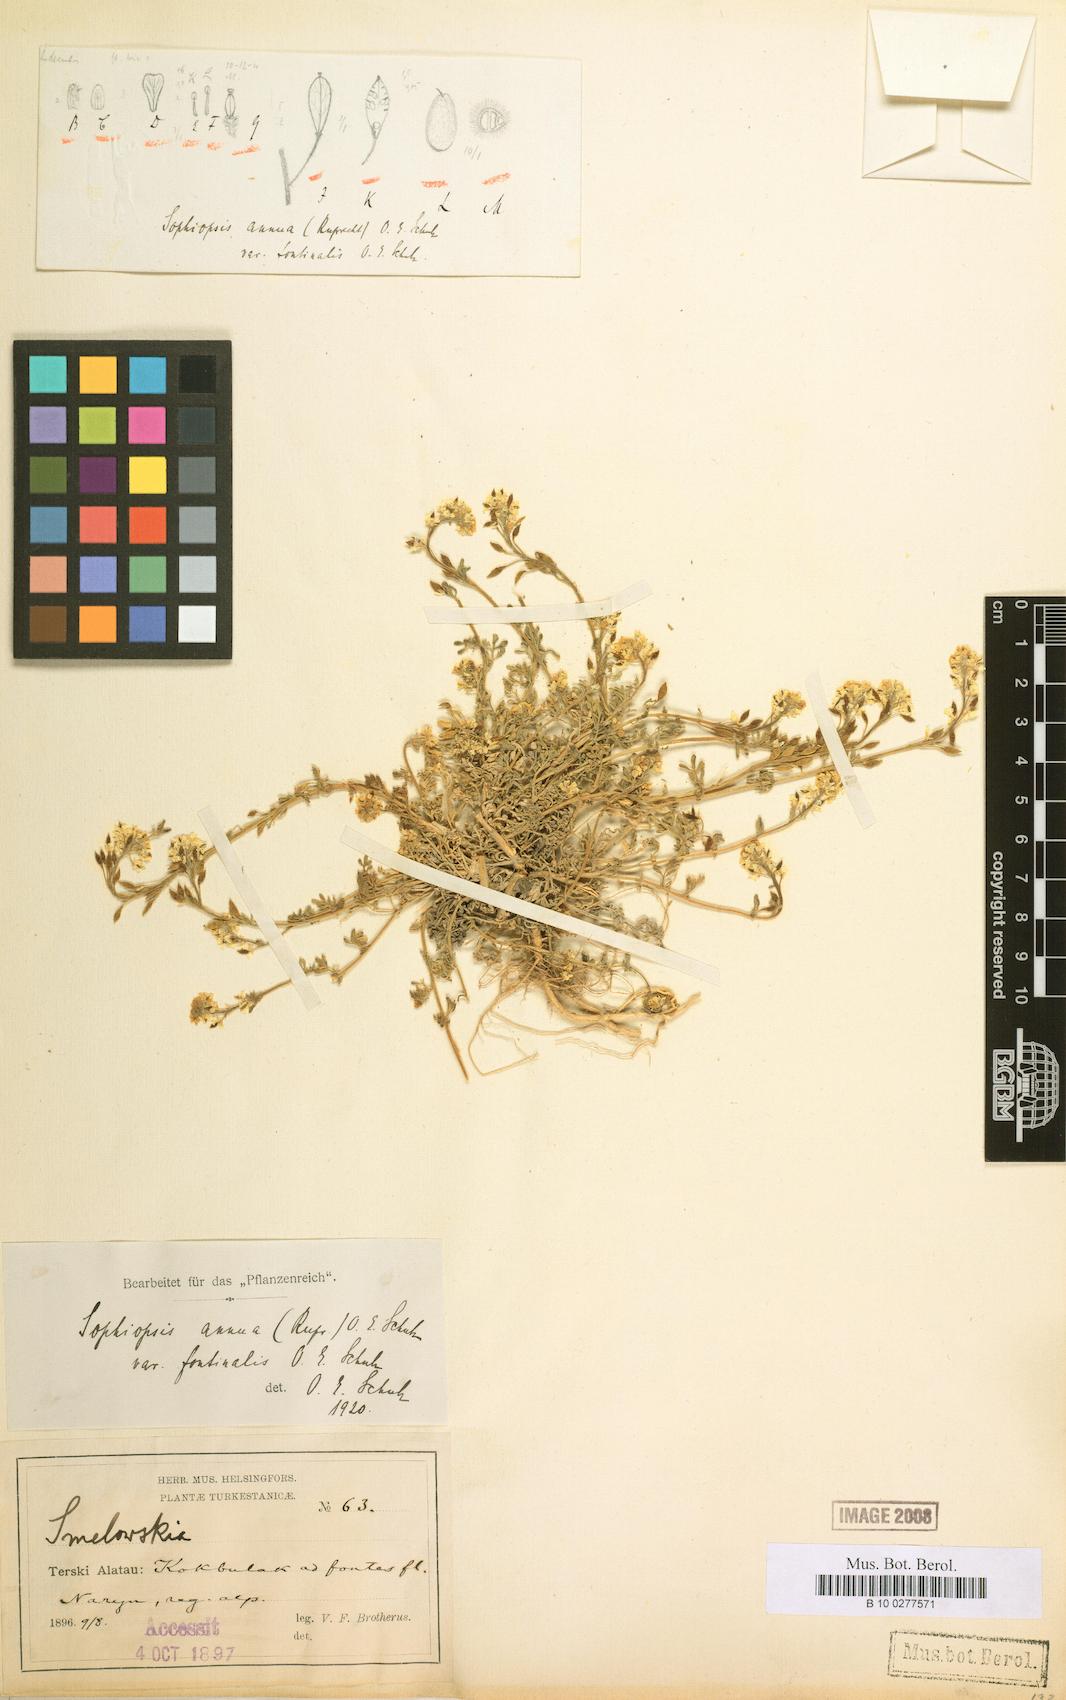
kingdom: Plantae
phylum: Tracheophyta
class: Magnoliopsida
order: Brassicales
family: Brassicaceae
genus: Smelowskia
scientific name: Smelowskia annua
